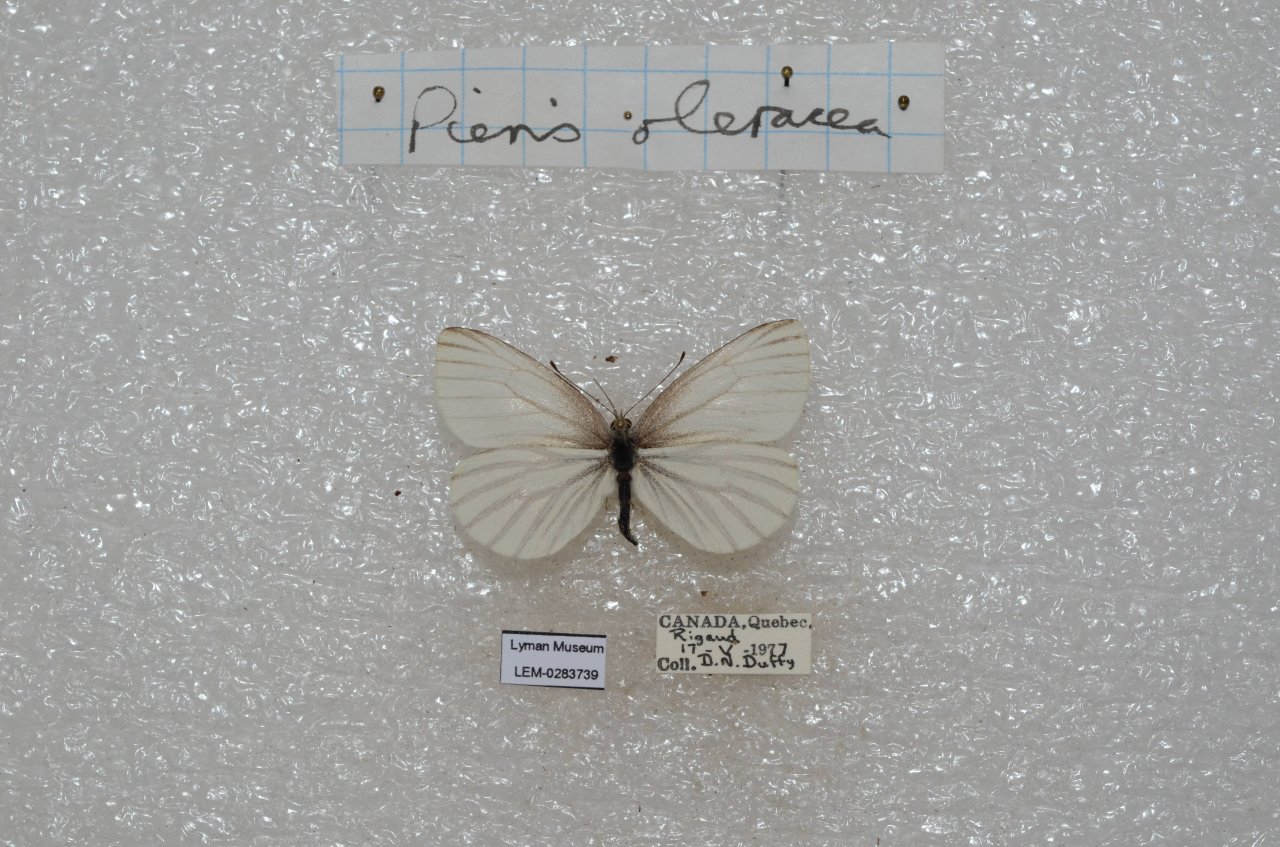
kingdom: Animalia
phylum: Arthropoda
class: Insecta
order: Lepidoptera
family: Pieridae
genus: Pieris
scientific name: Pieris oleracea
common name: Mustard White
